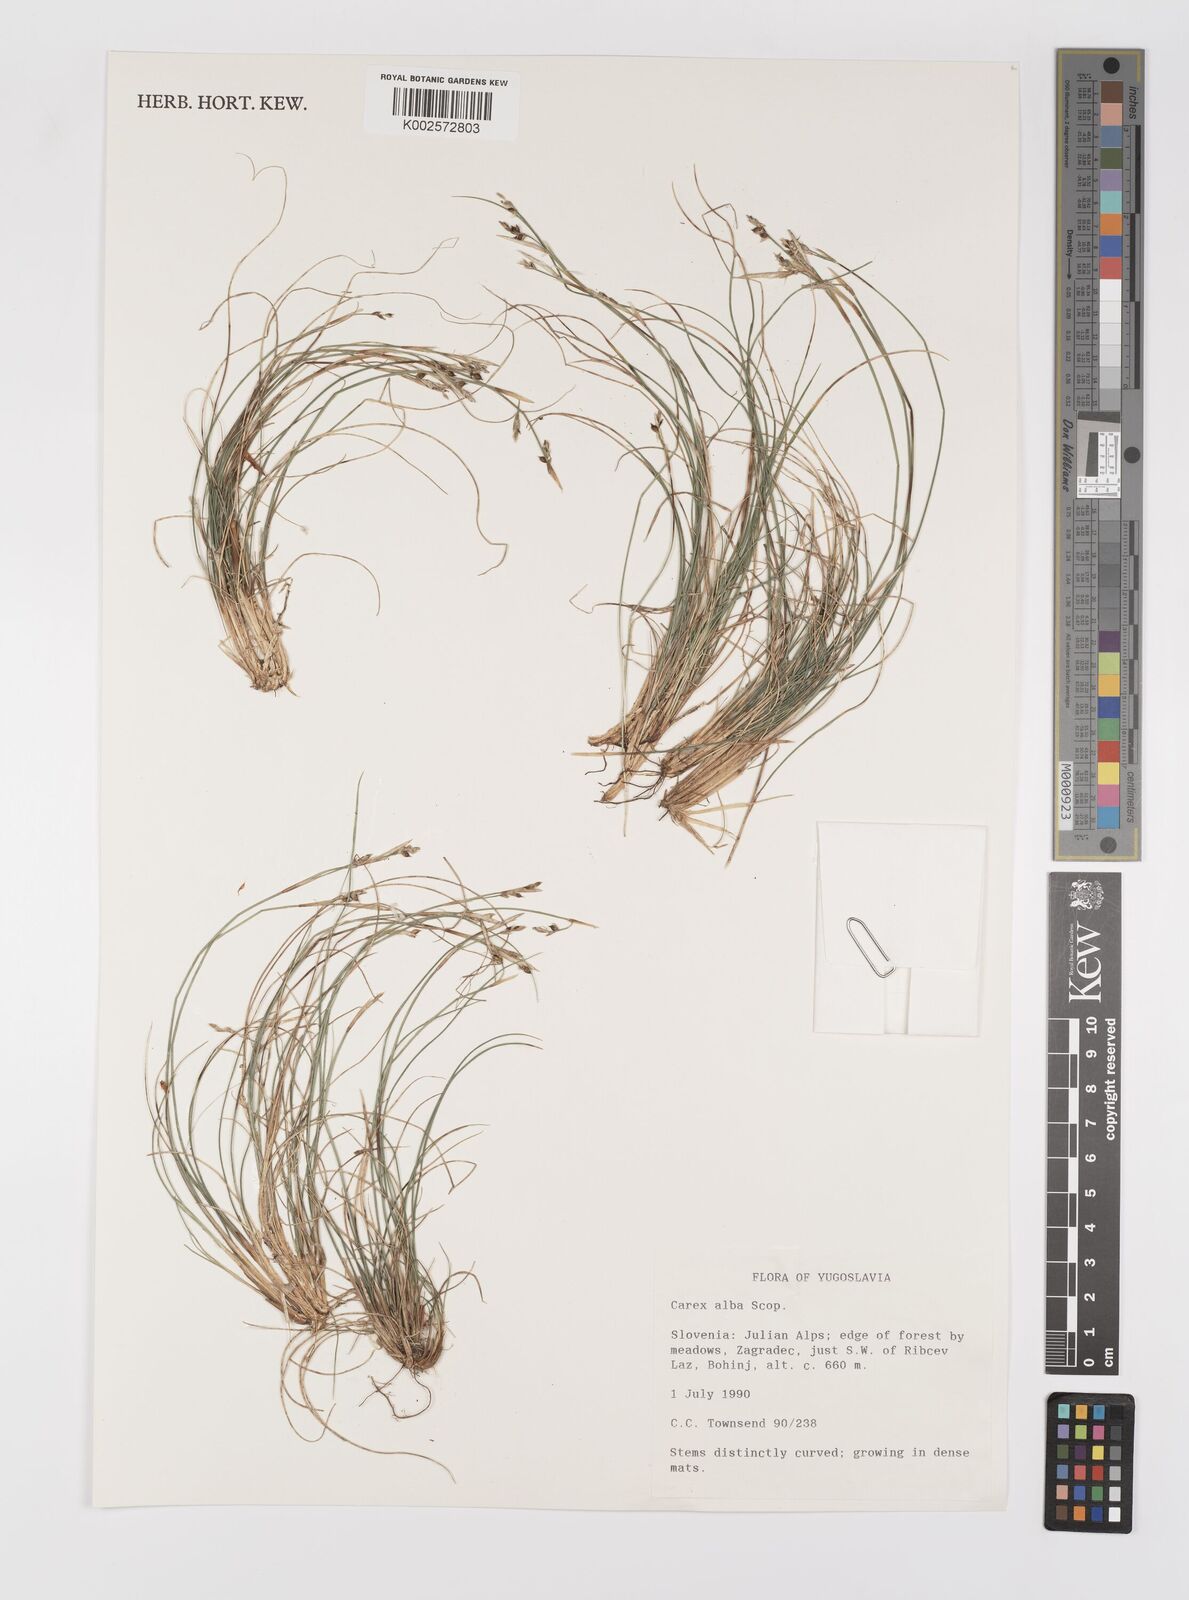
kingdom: Plantae
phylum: Tracheophyta
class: Liliopsida
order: Poales
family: Cyperaceae
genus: Carex
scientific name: Carex alba
